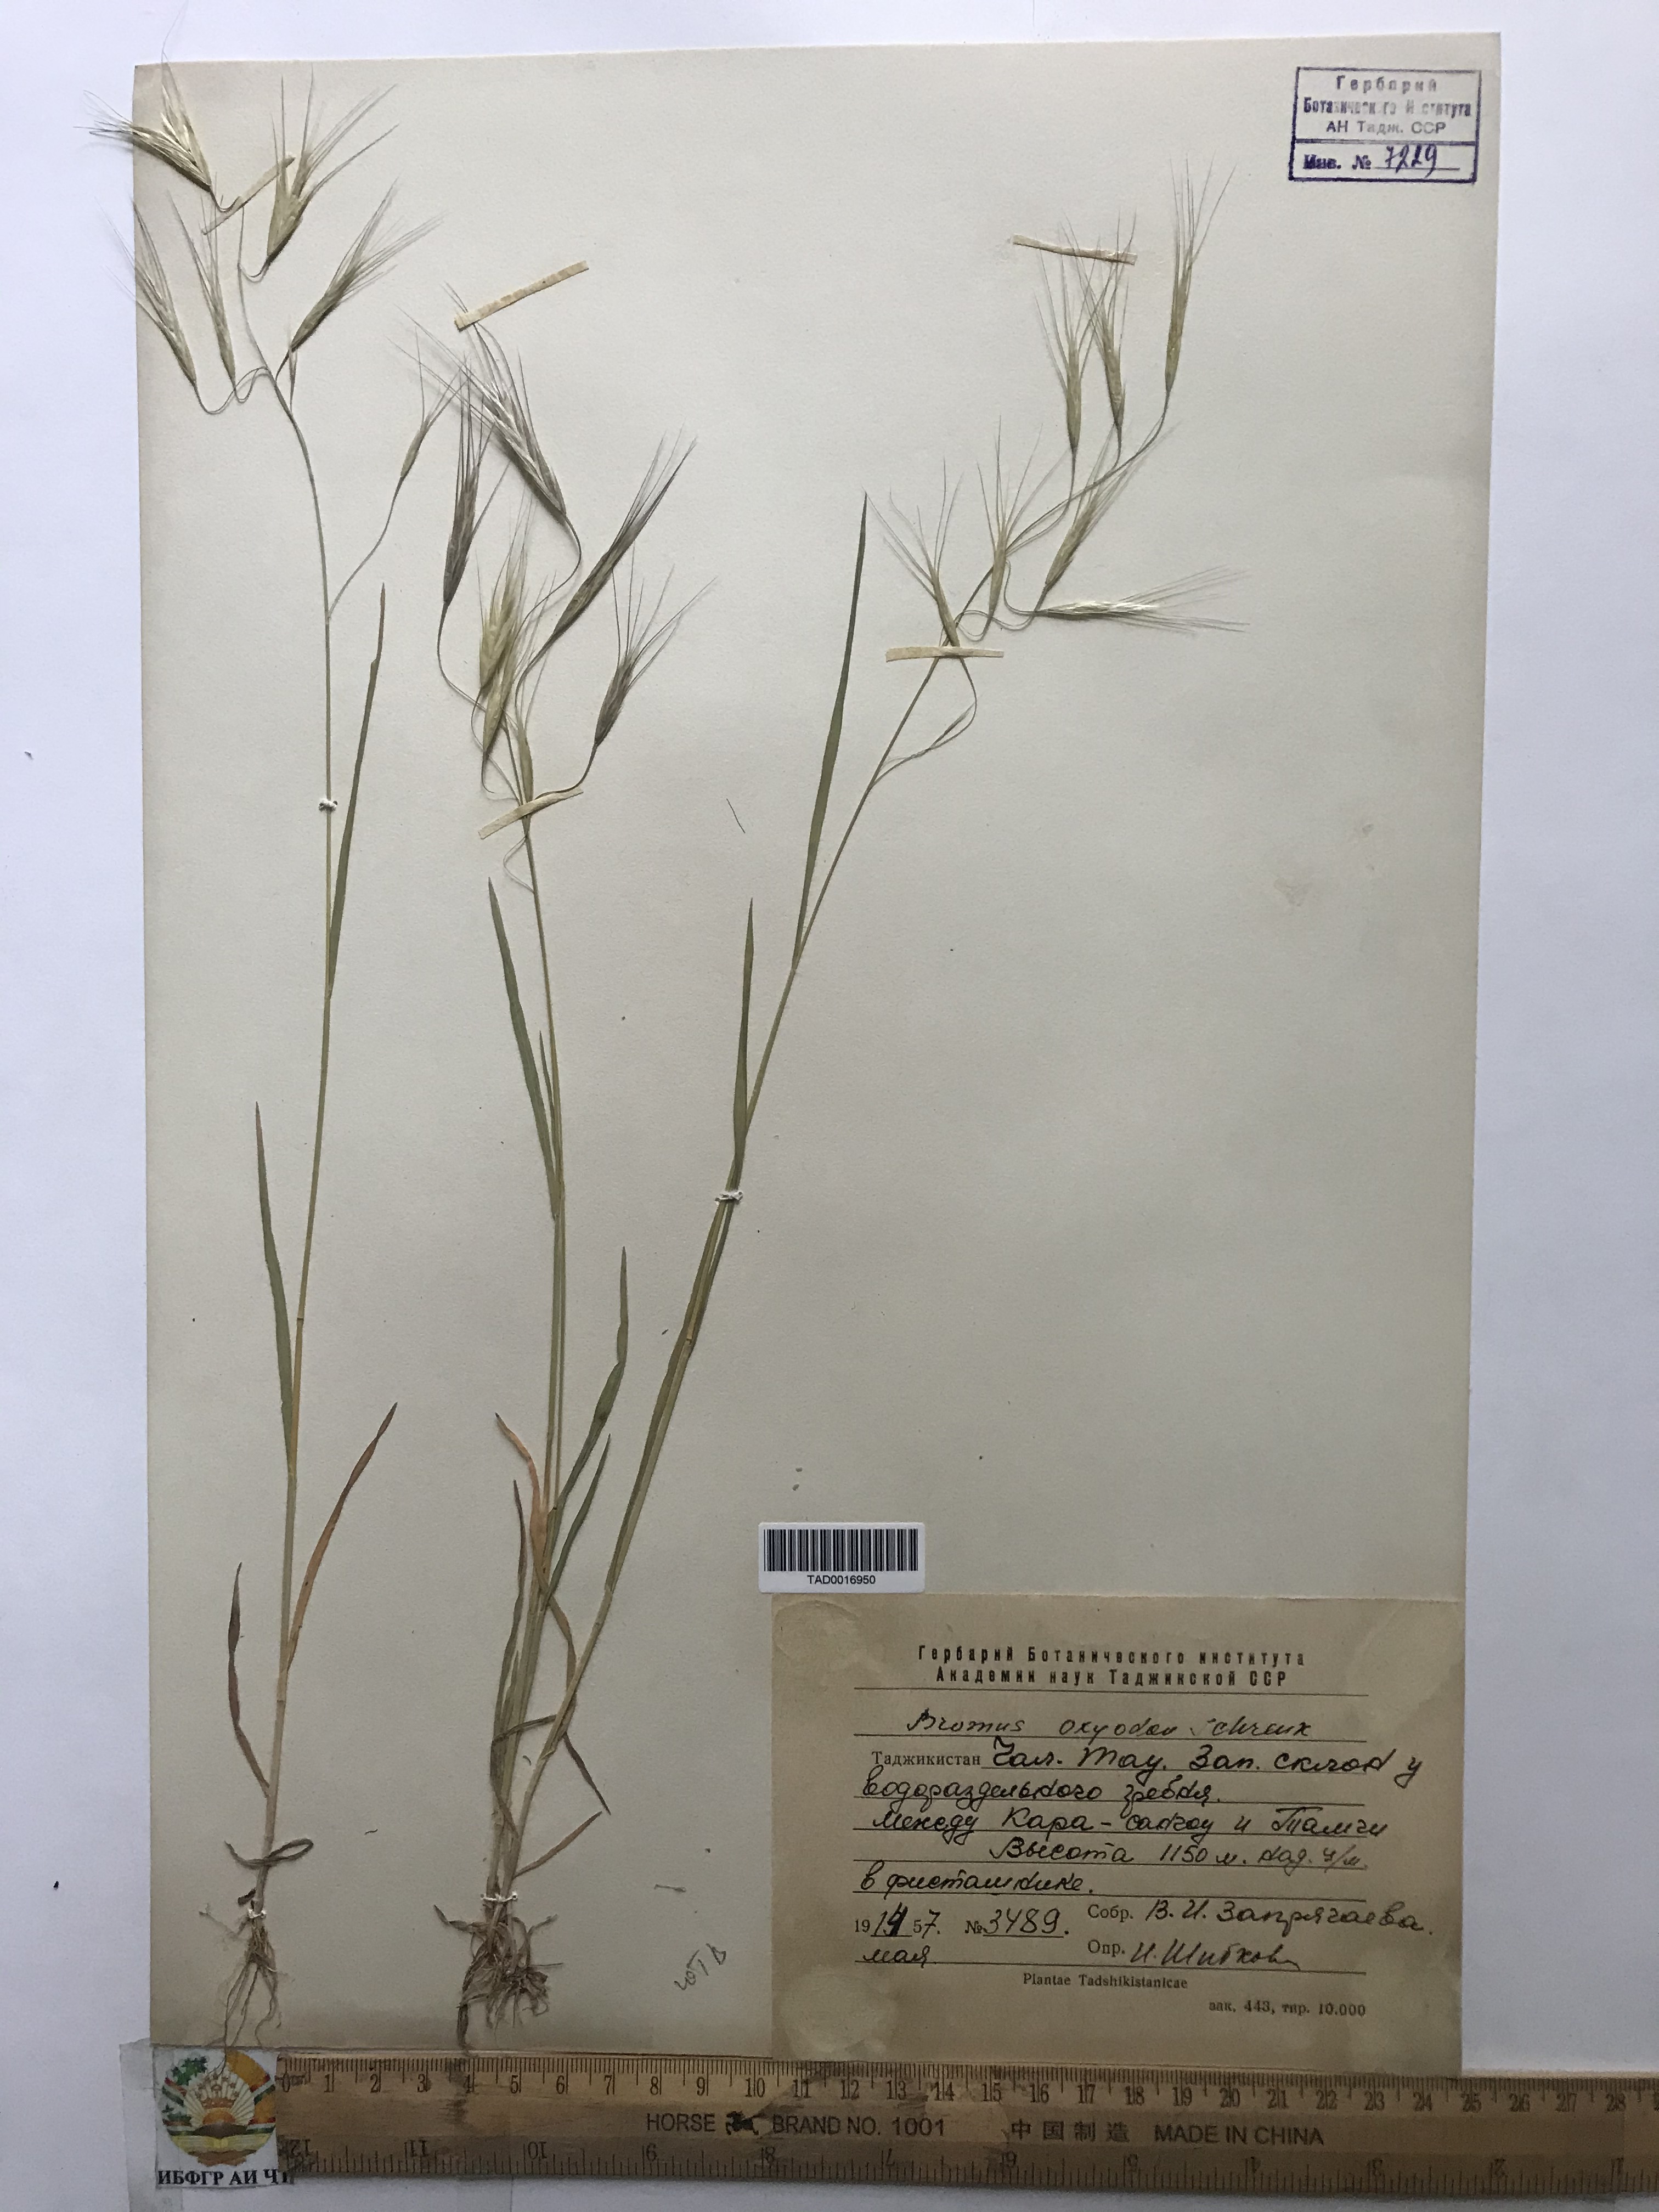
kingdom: Plantae
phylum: Tracheophyta
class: Liliopsida
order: Poales
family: Poaceae
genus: Bromus
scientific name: Bromus oxyodon
